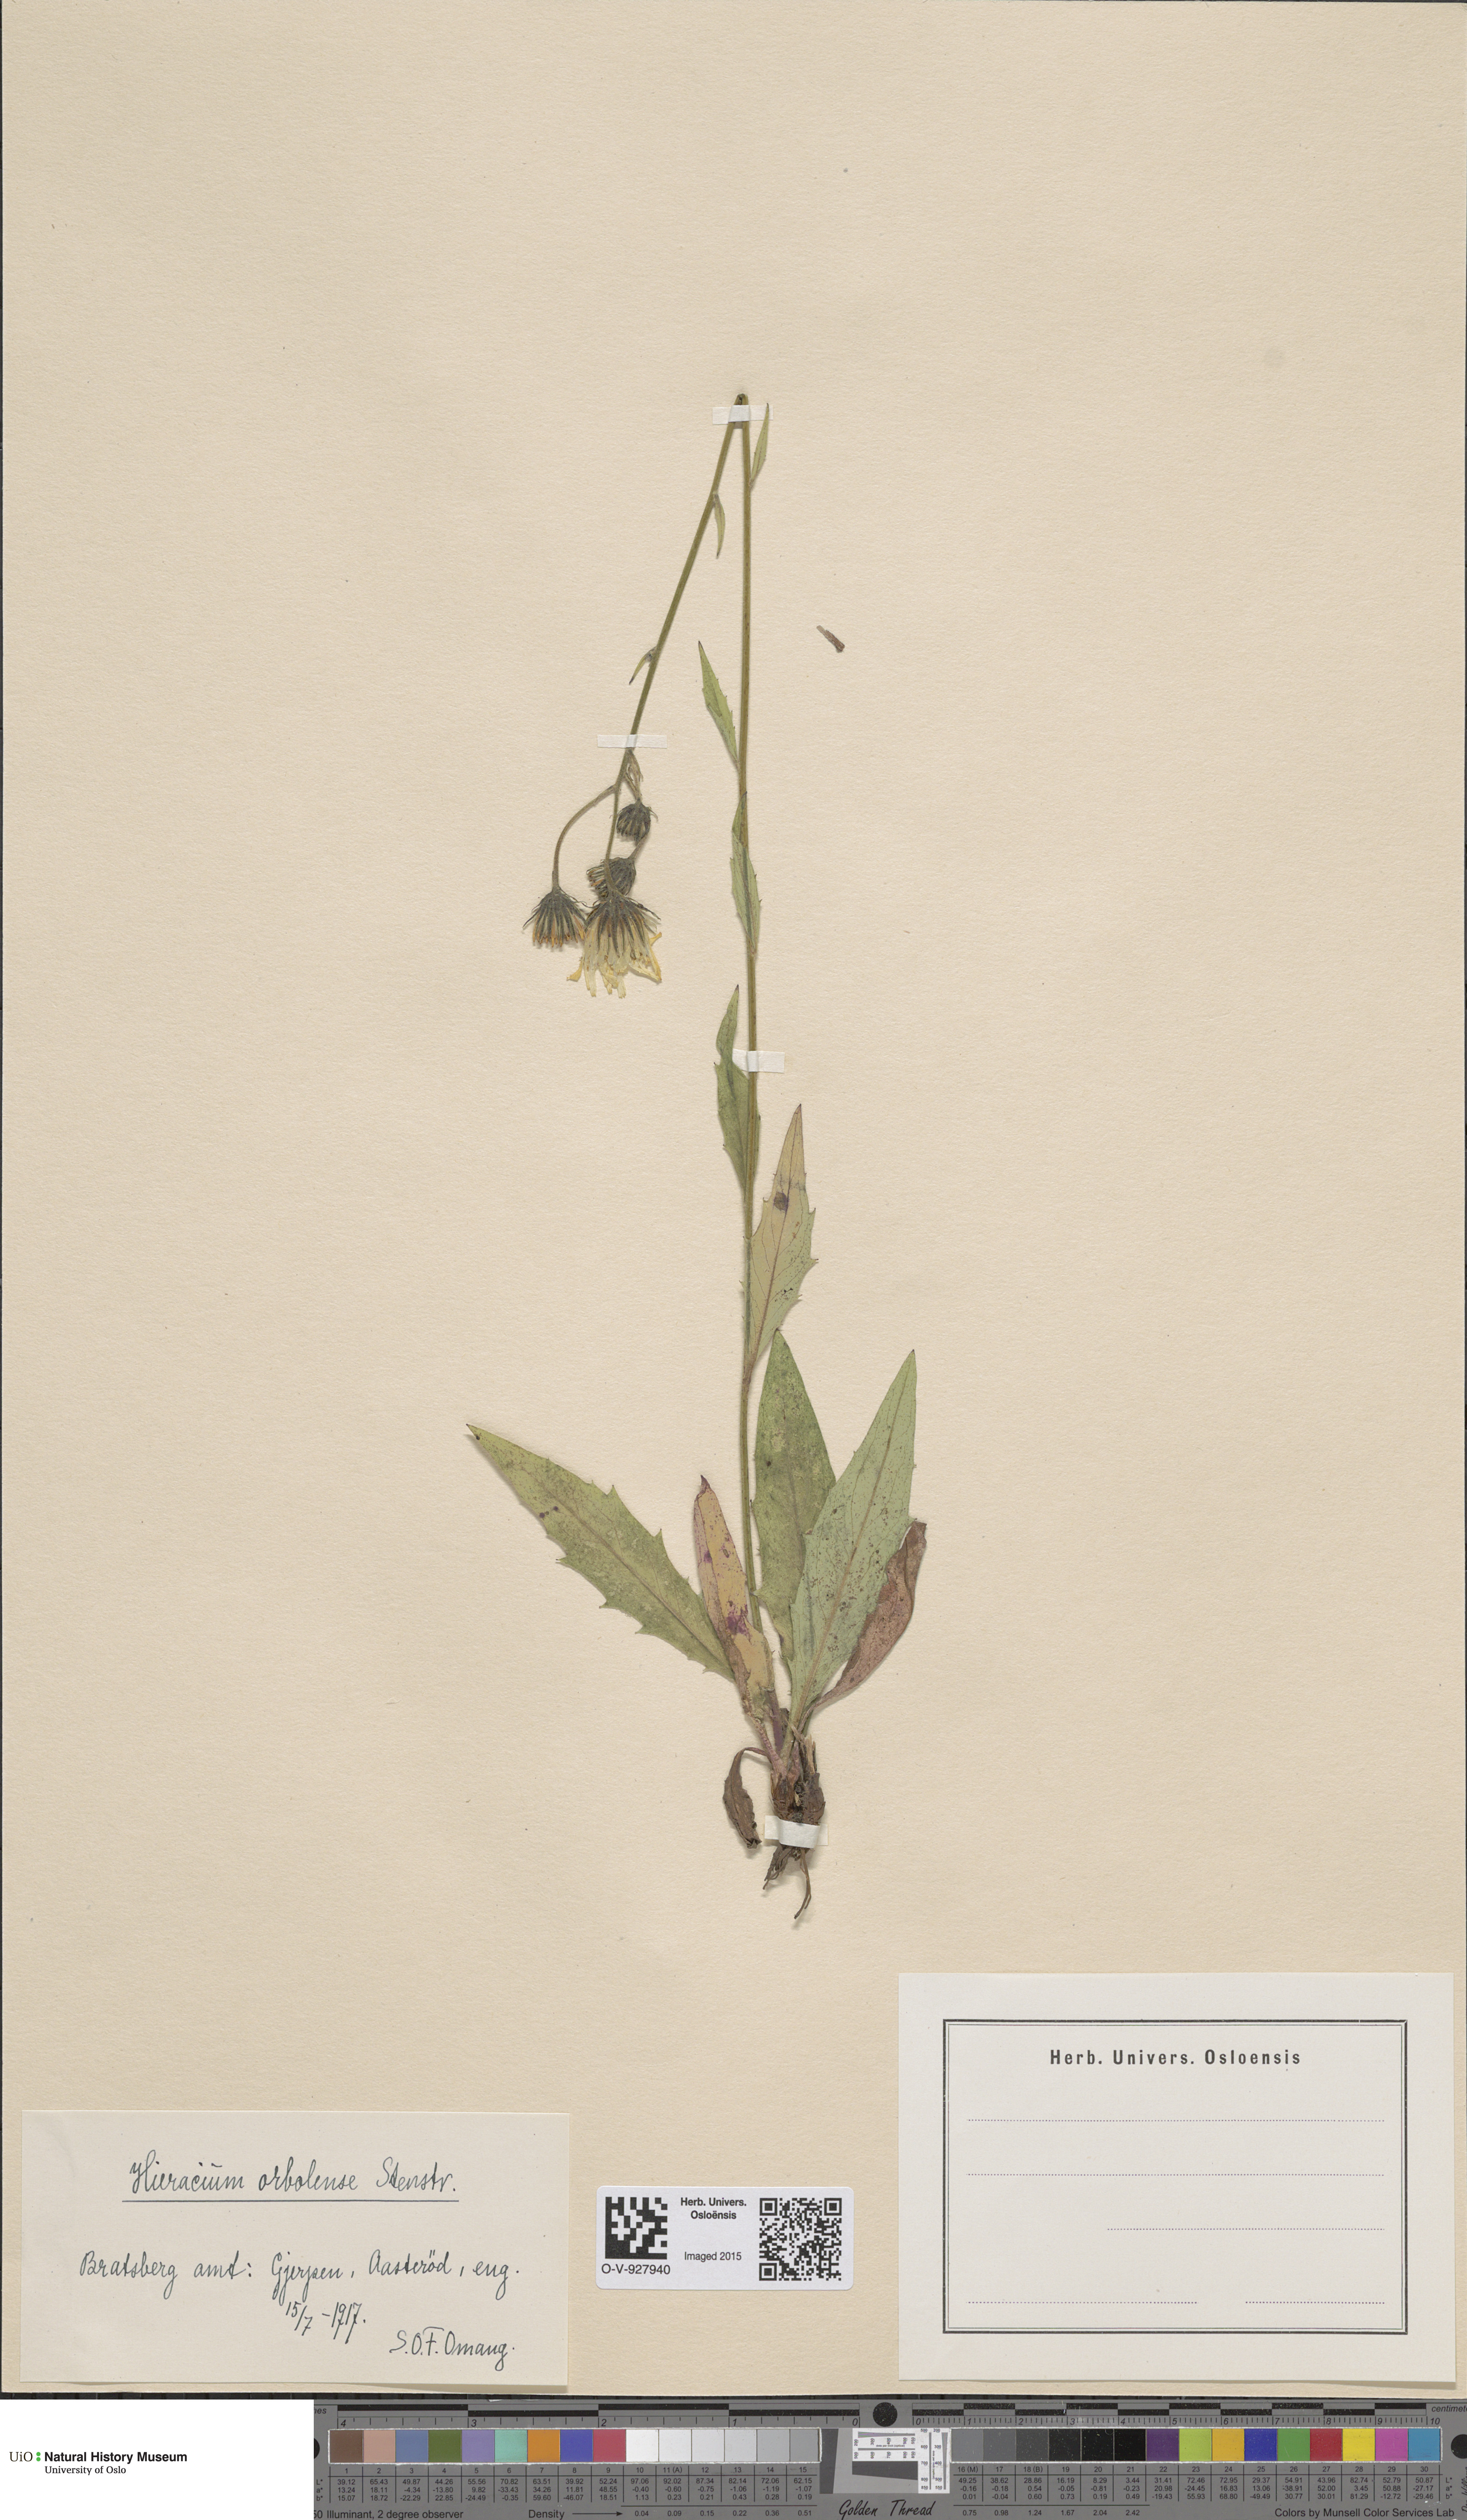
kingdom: Plantae
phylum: Tracheophyta
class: Magnoliopsida
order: Asterales
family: Asteraceae
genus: Hieracium
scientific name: Hieracium orbolense
